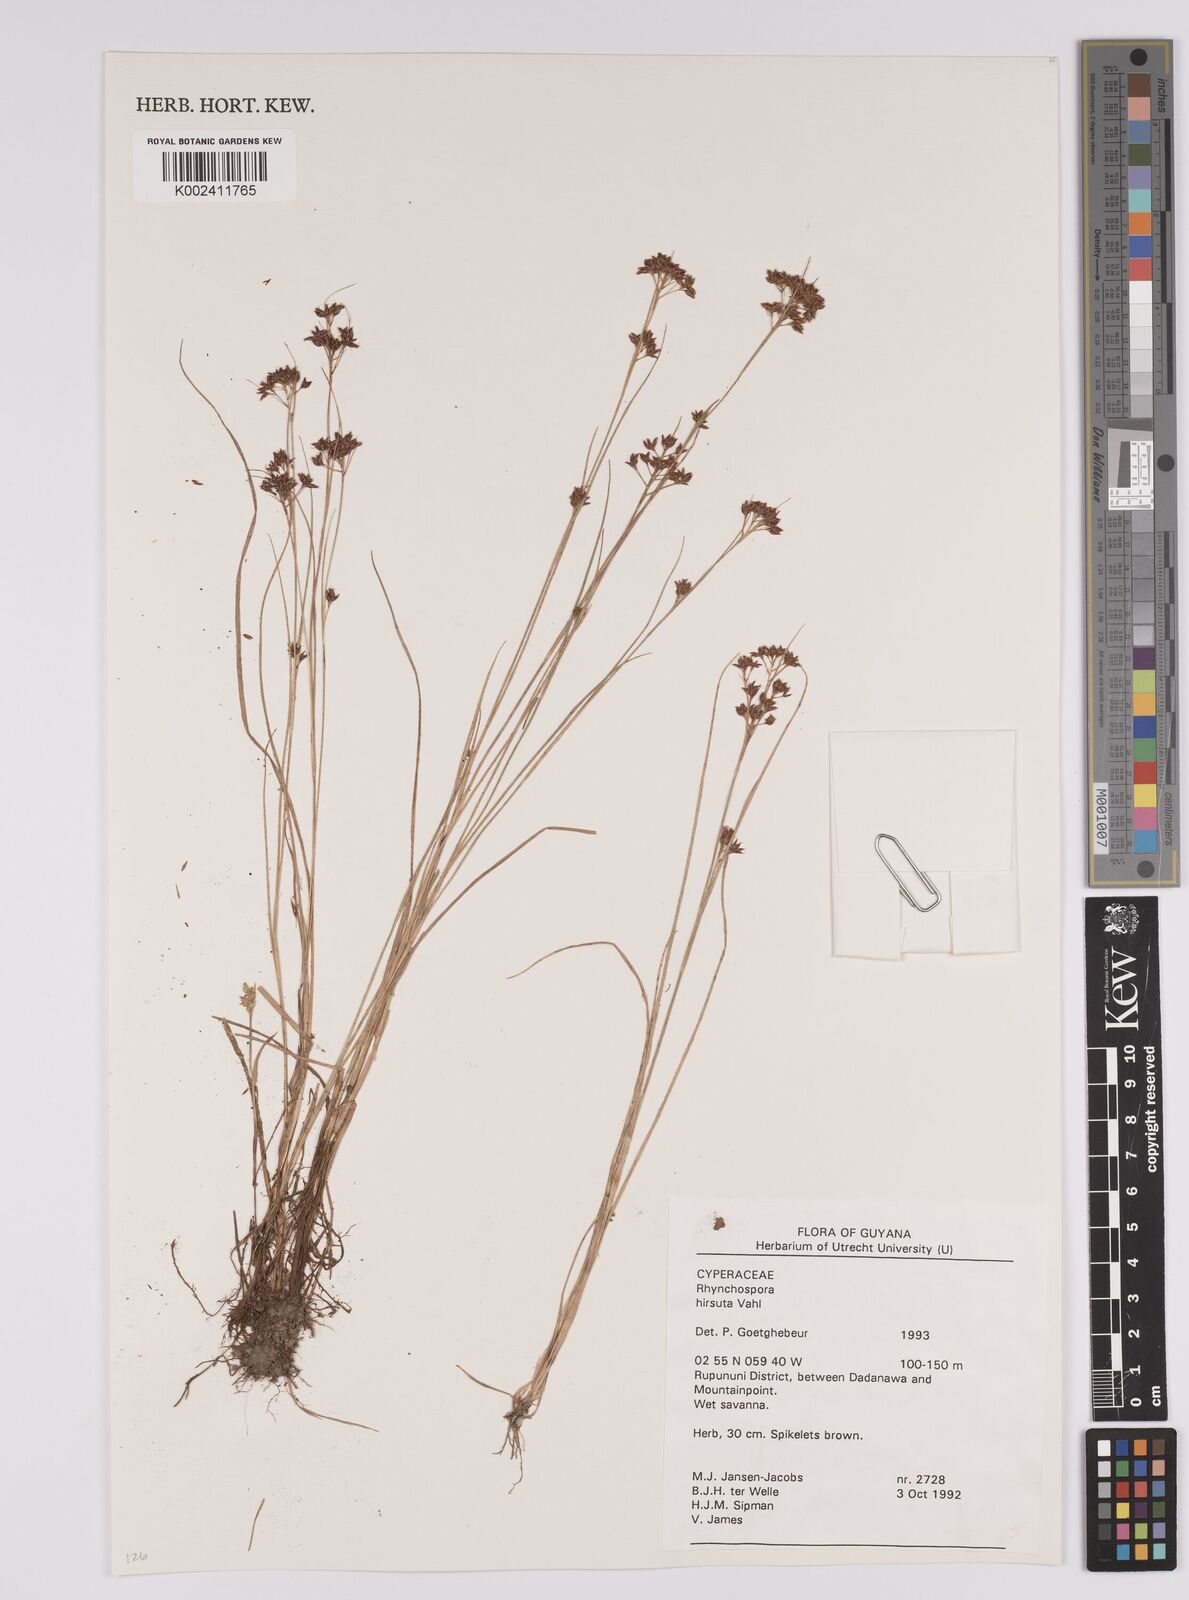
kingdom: Plantae
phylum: Tracheophyta
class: Liliopsida
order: Poales
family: Cyperaceae
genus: Rhynchospora
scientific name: Rhynchospora hirsuta
